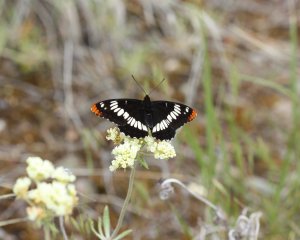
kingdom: Animalia
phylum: Arthropoda
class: Insecta
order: Lepidoptera
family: Nymphalidae
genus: Limenitis
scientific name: Limenitis lorquini
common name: Lorquin's Admiral
